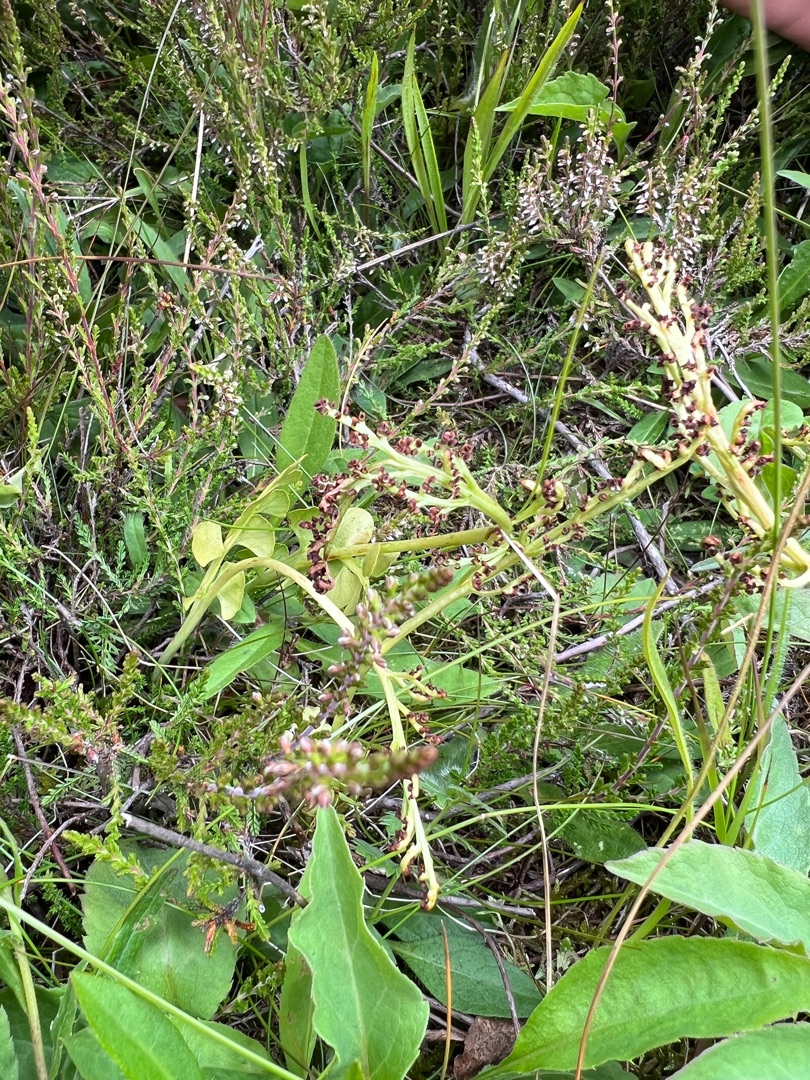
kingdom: Plantae
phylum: Tracheophyta
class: Polypodiopsida
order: Ophioglossales
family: Ophioglossaceae
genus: Botrychium
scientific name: Botrychium lunaria
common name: Almindelig månerude
